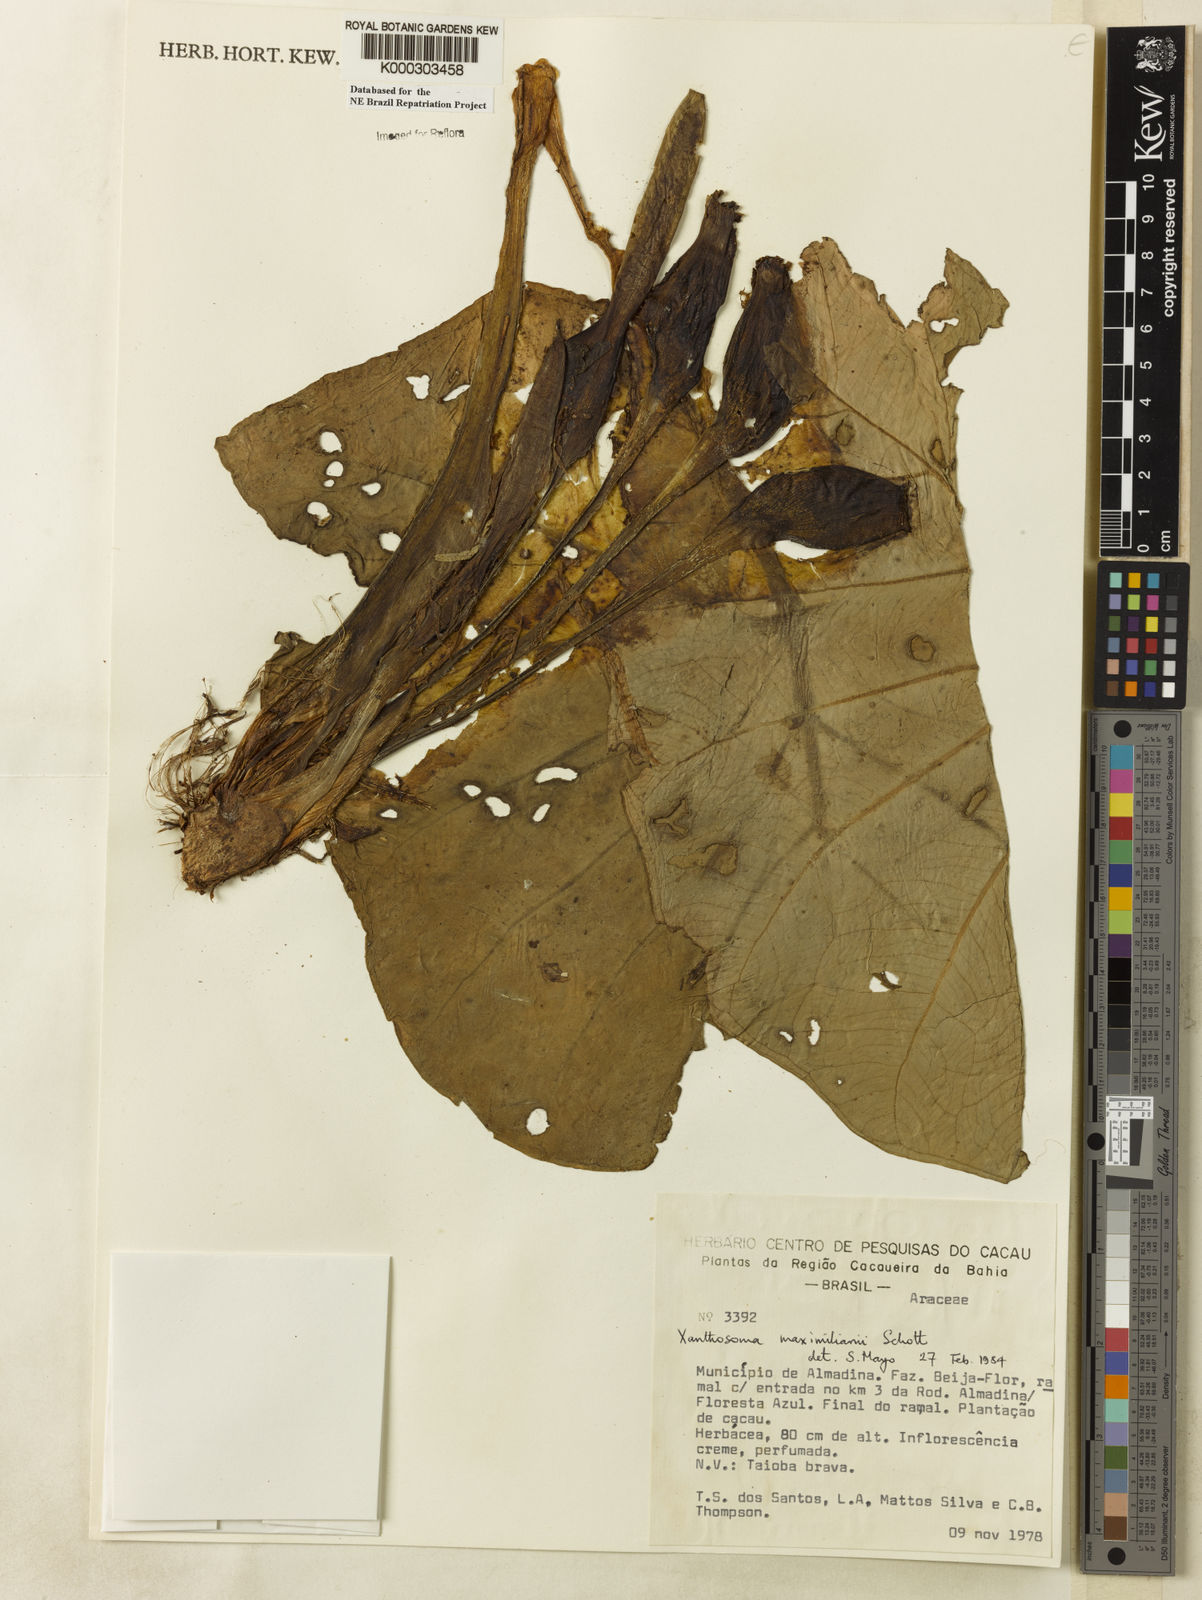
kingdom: Plantae
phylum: Tracheophyta
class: Liliopsida
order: Alismatales
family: Araceae
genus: Xanthosoma
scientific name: Xanthosoma maximiliani
